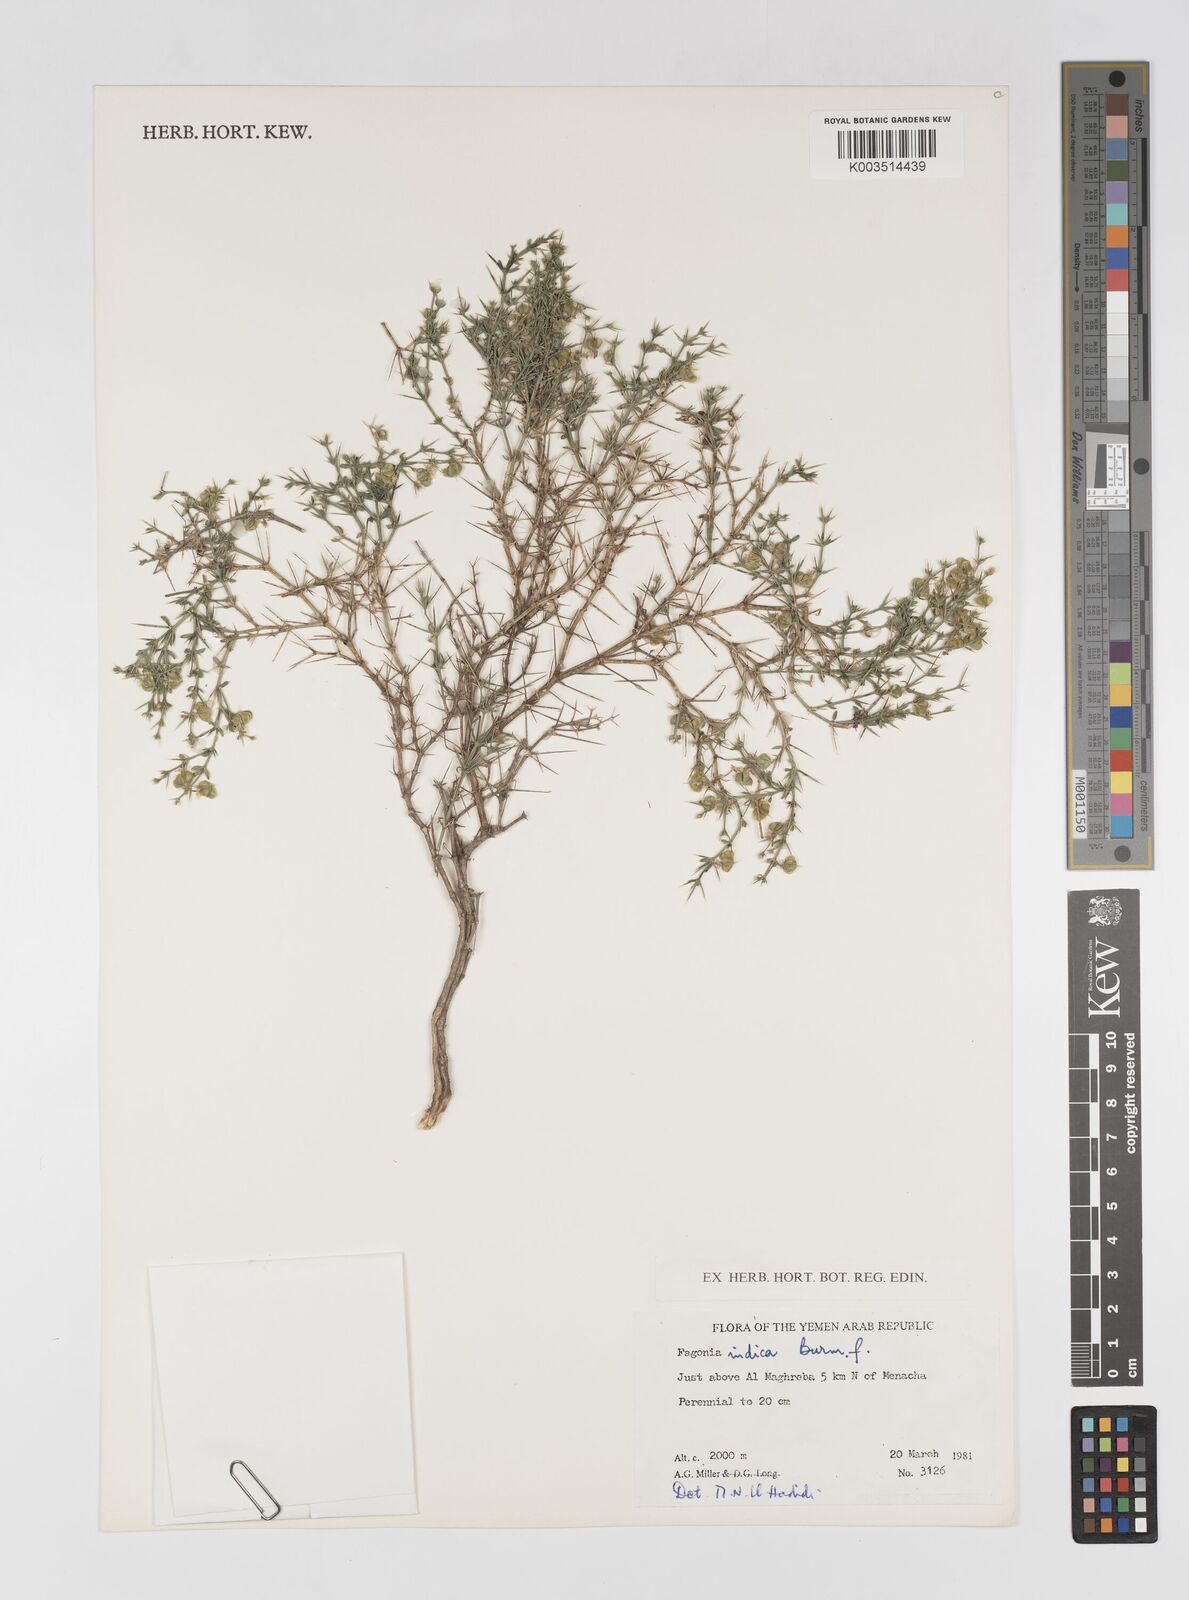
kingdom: Plantae
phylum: Tracheophyta
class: Magnoliopsida
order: Zygophyllales
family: Zygophyllaceae
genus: Fagonia
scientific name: Fagonia indica
